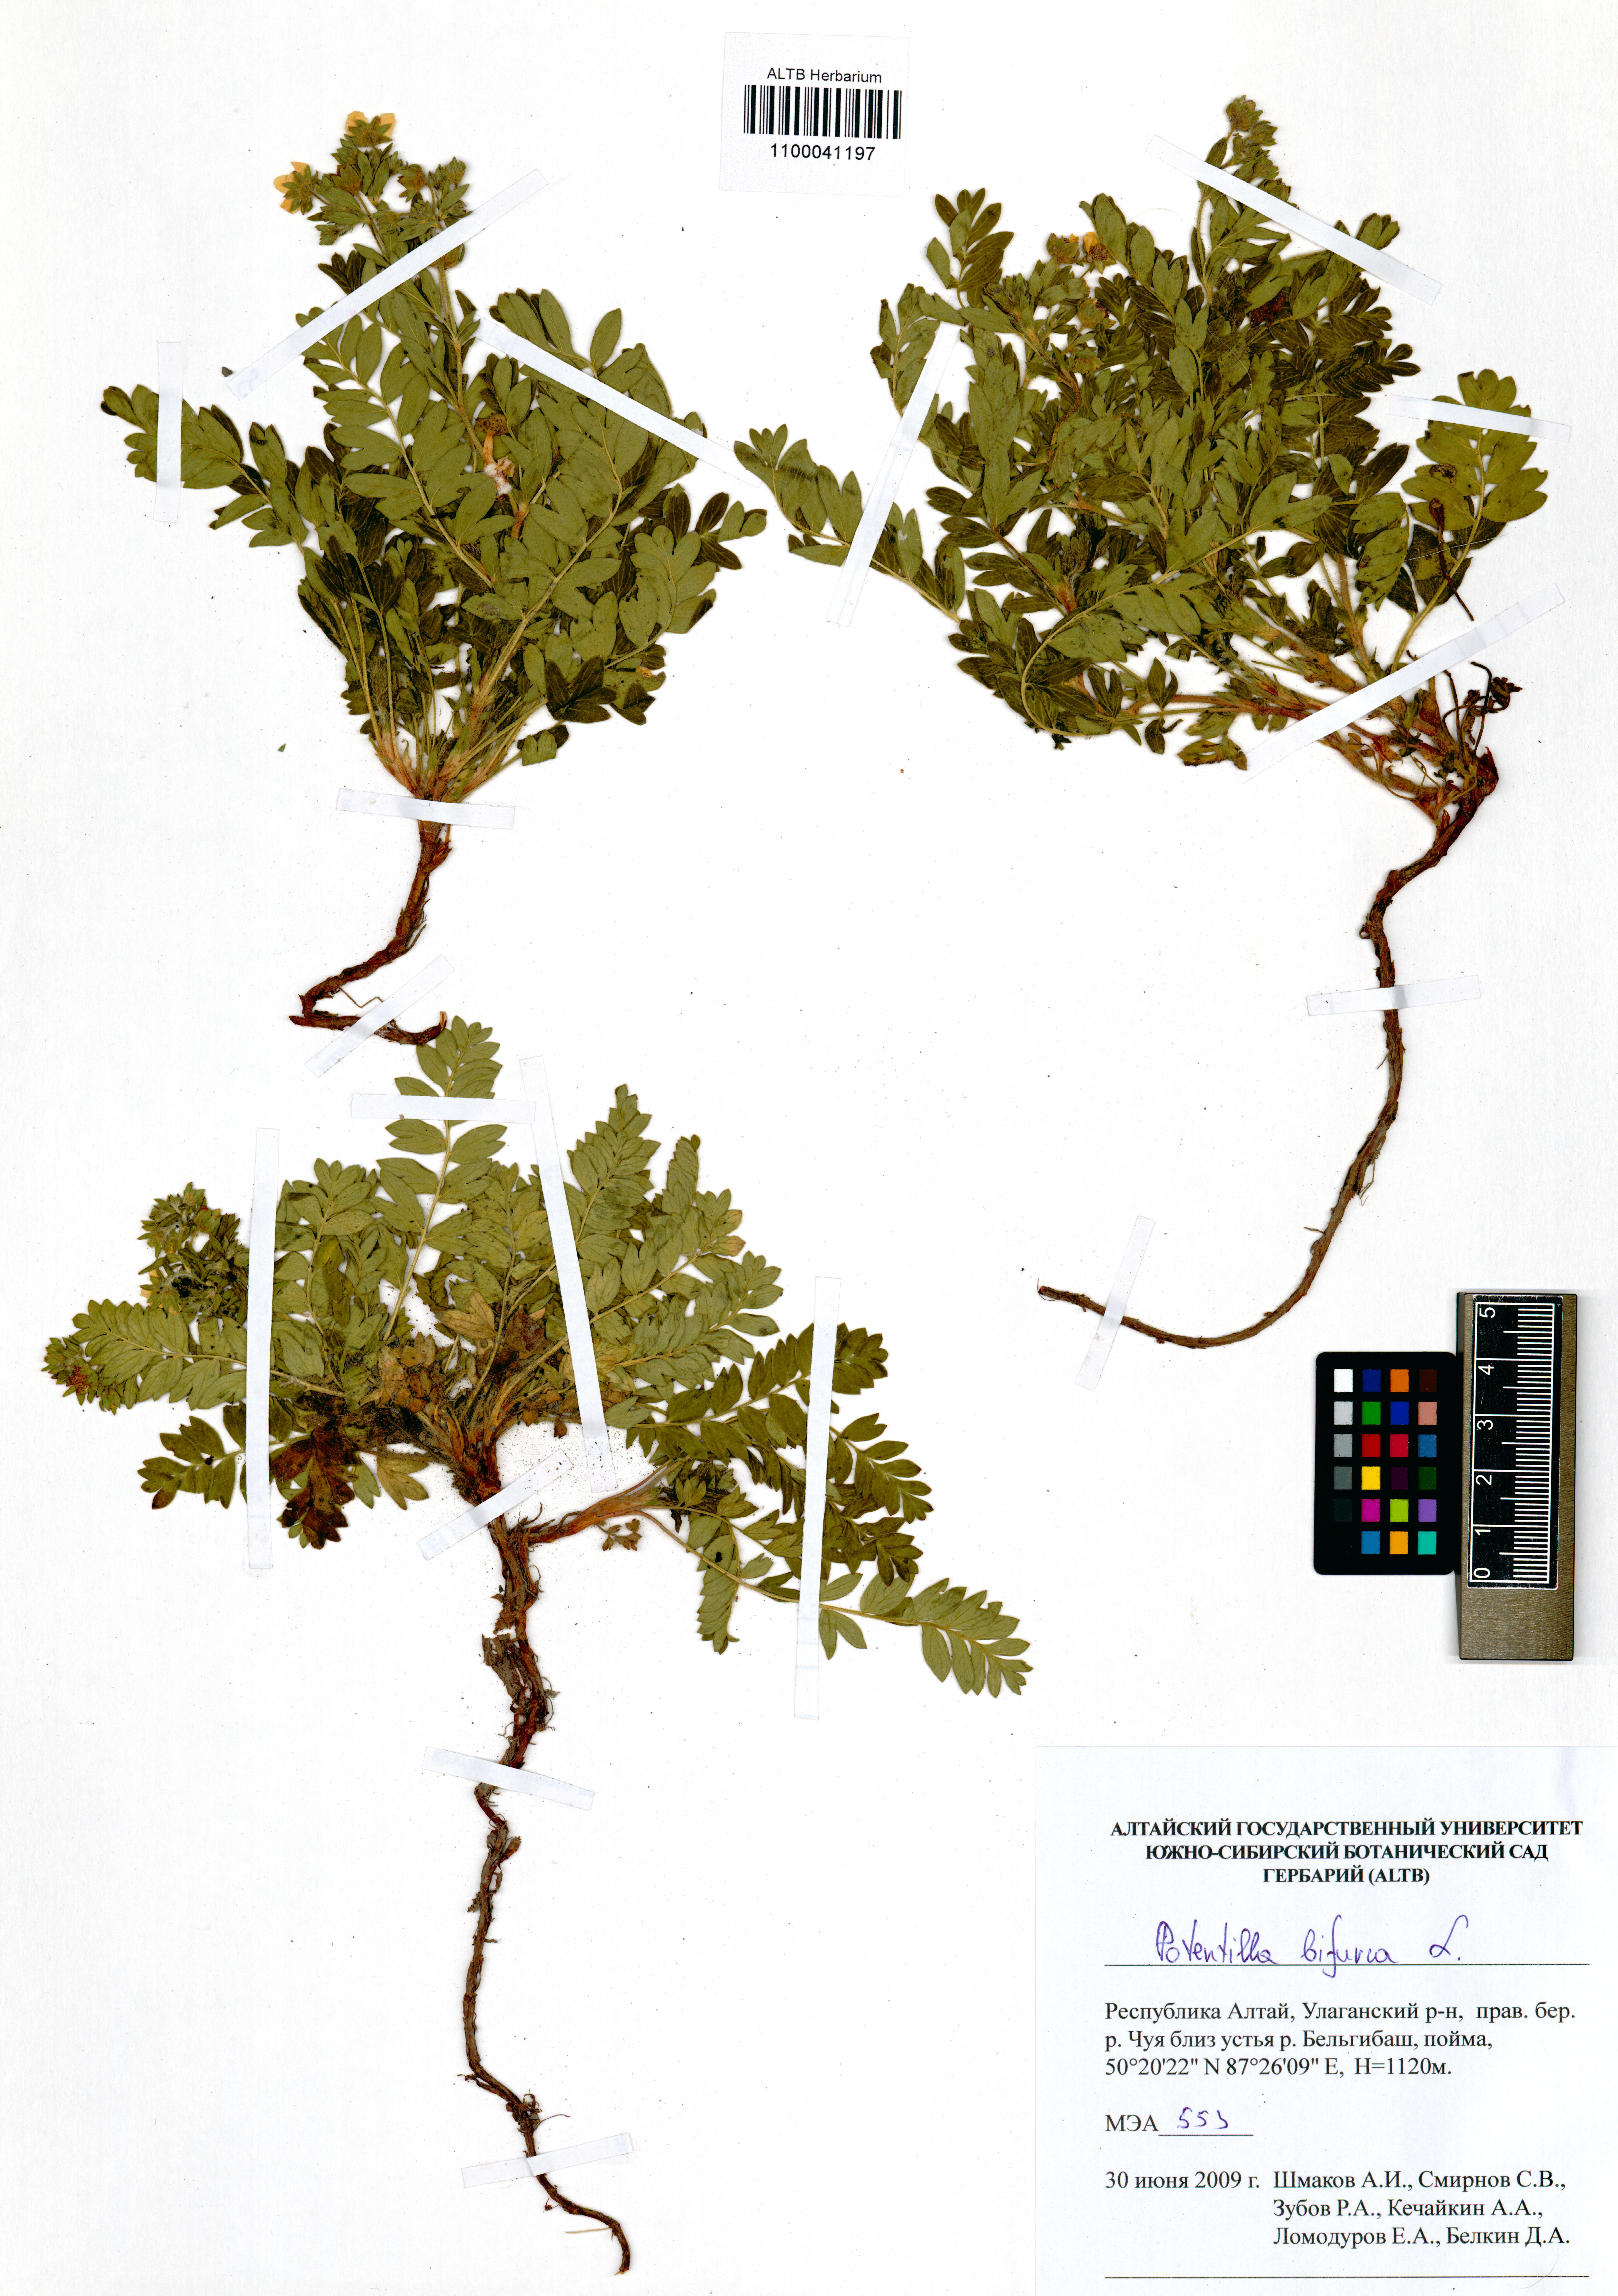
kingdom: Plantae
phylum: Tracheophyta
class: Magnoliopsida
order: Rosales
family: Rosaceae
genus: Sibbaldianthe
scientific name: Sibbaldianthe bifurca
